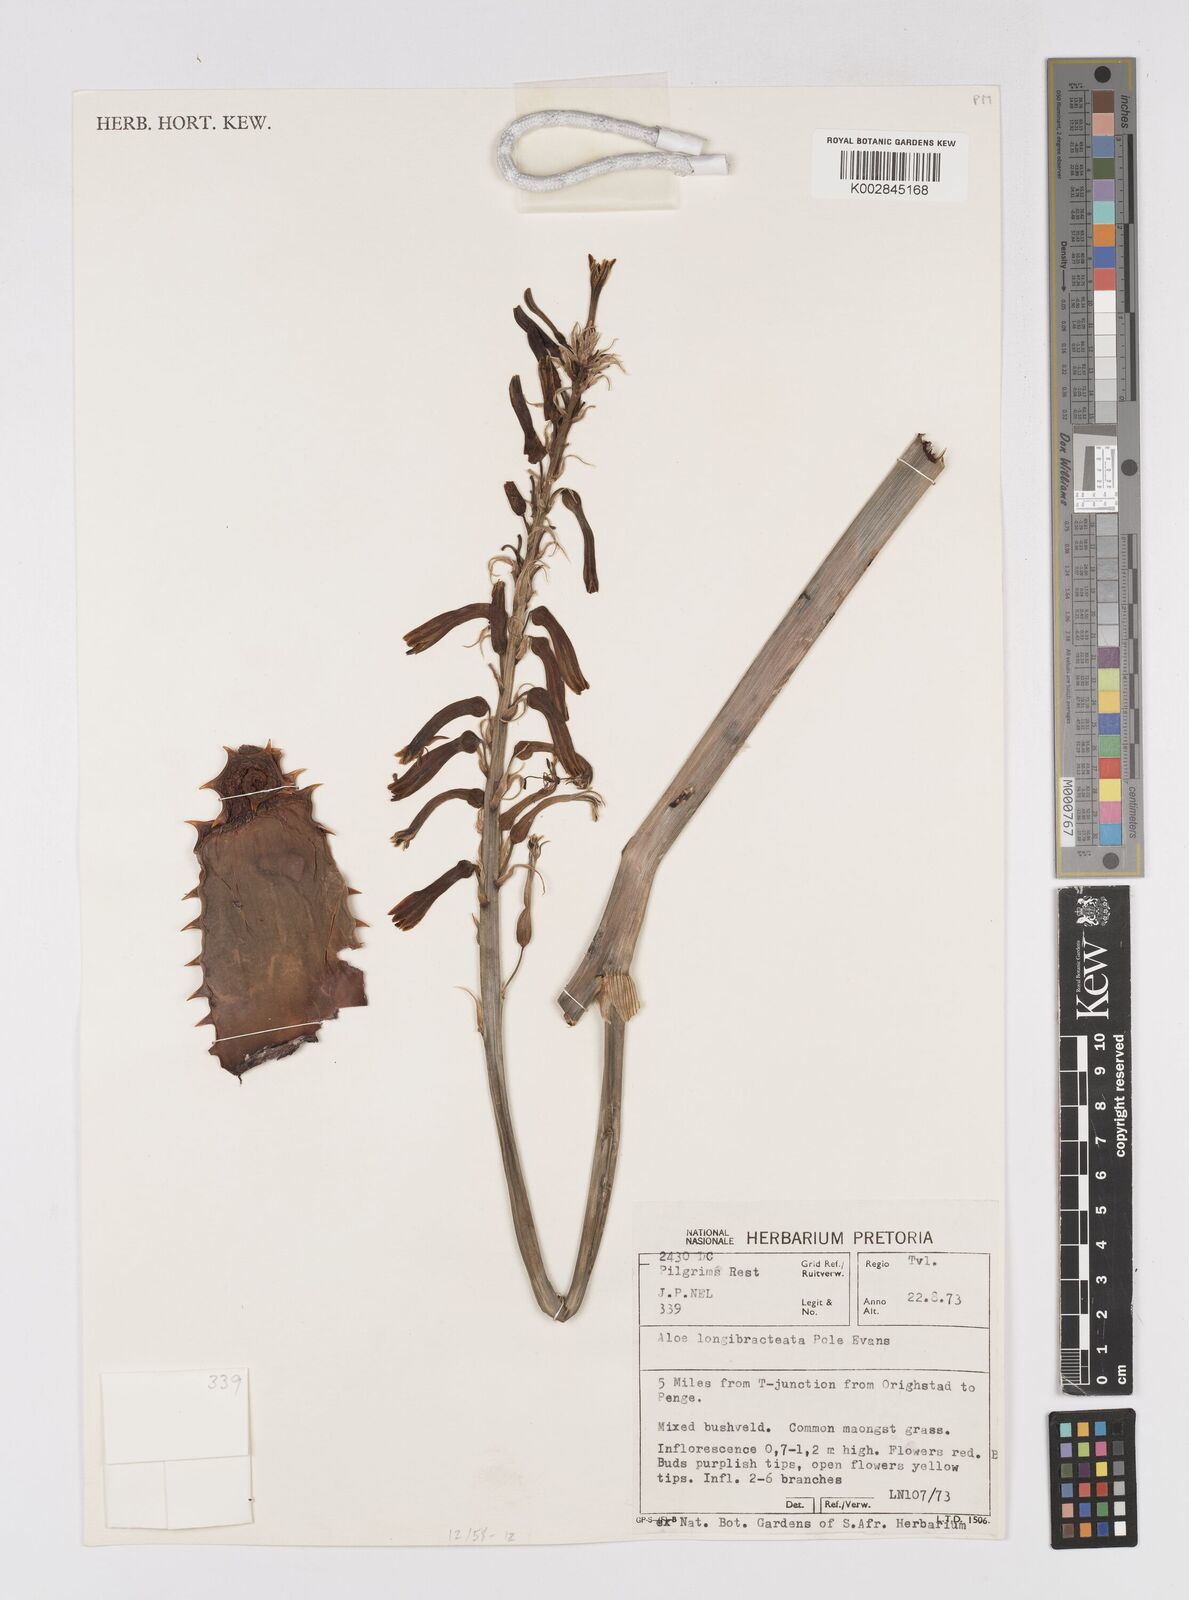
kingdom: Plantae
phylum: Tracheophyta
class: Liliopsida
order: Asparagales
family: Asphodelaceae
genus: Aloe
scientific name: Aloe longibracteata
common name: Limpopo spotted aloe
